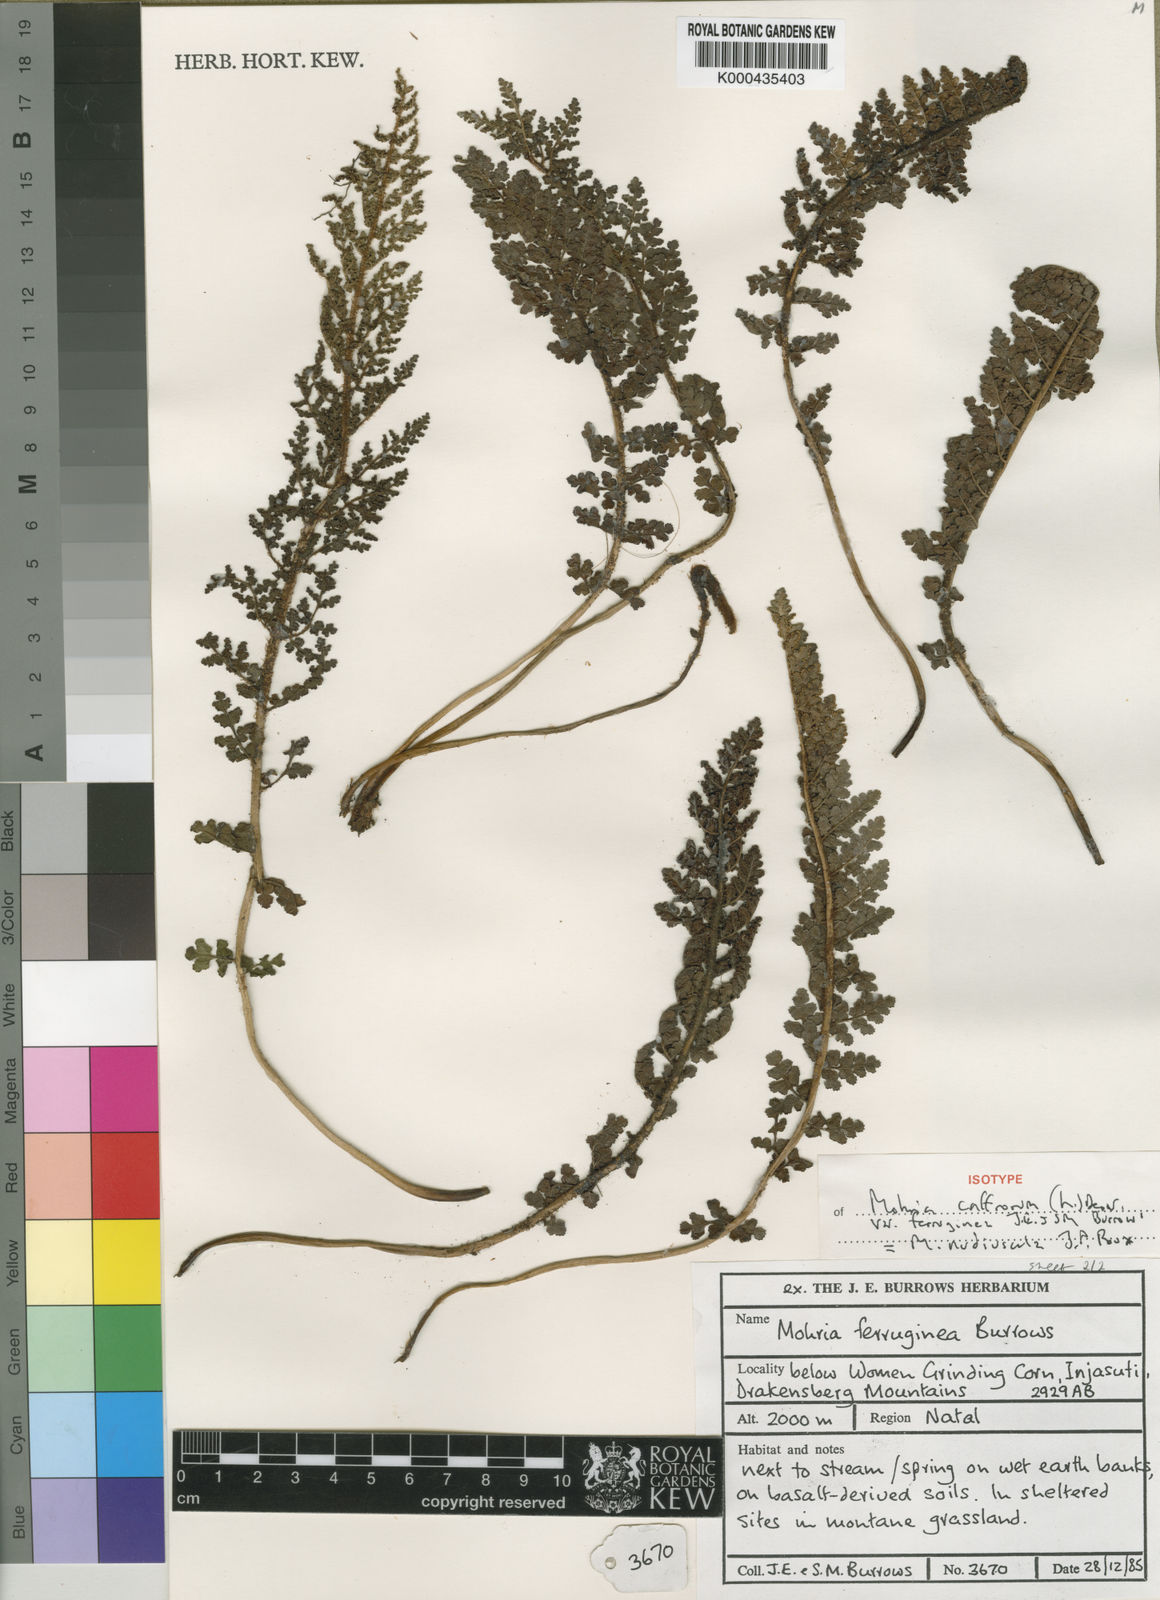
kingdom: Plantae
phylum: Tracheophyta
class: Polypodiopsida
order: Schizaeales
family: Anemiaceae
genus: Anemia
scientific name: Anemia nudiuscula
